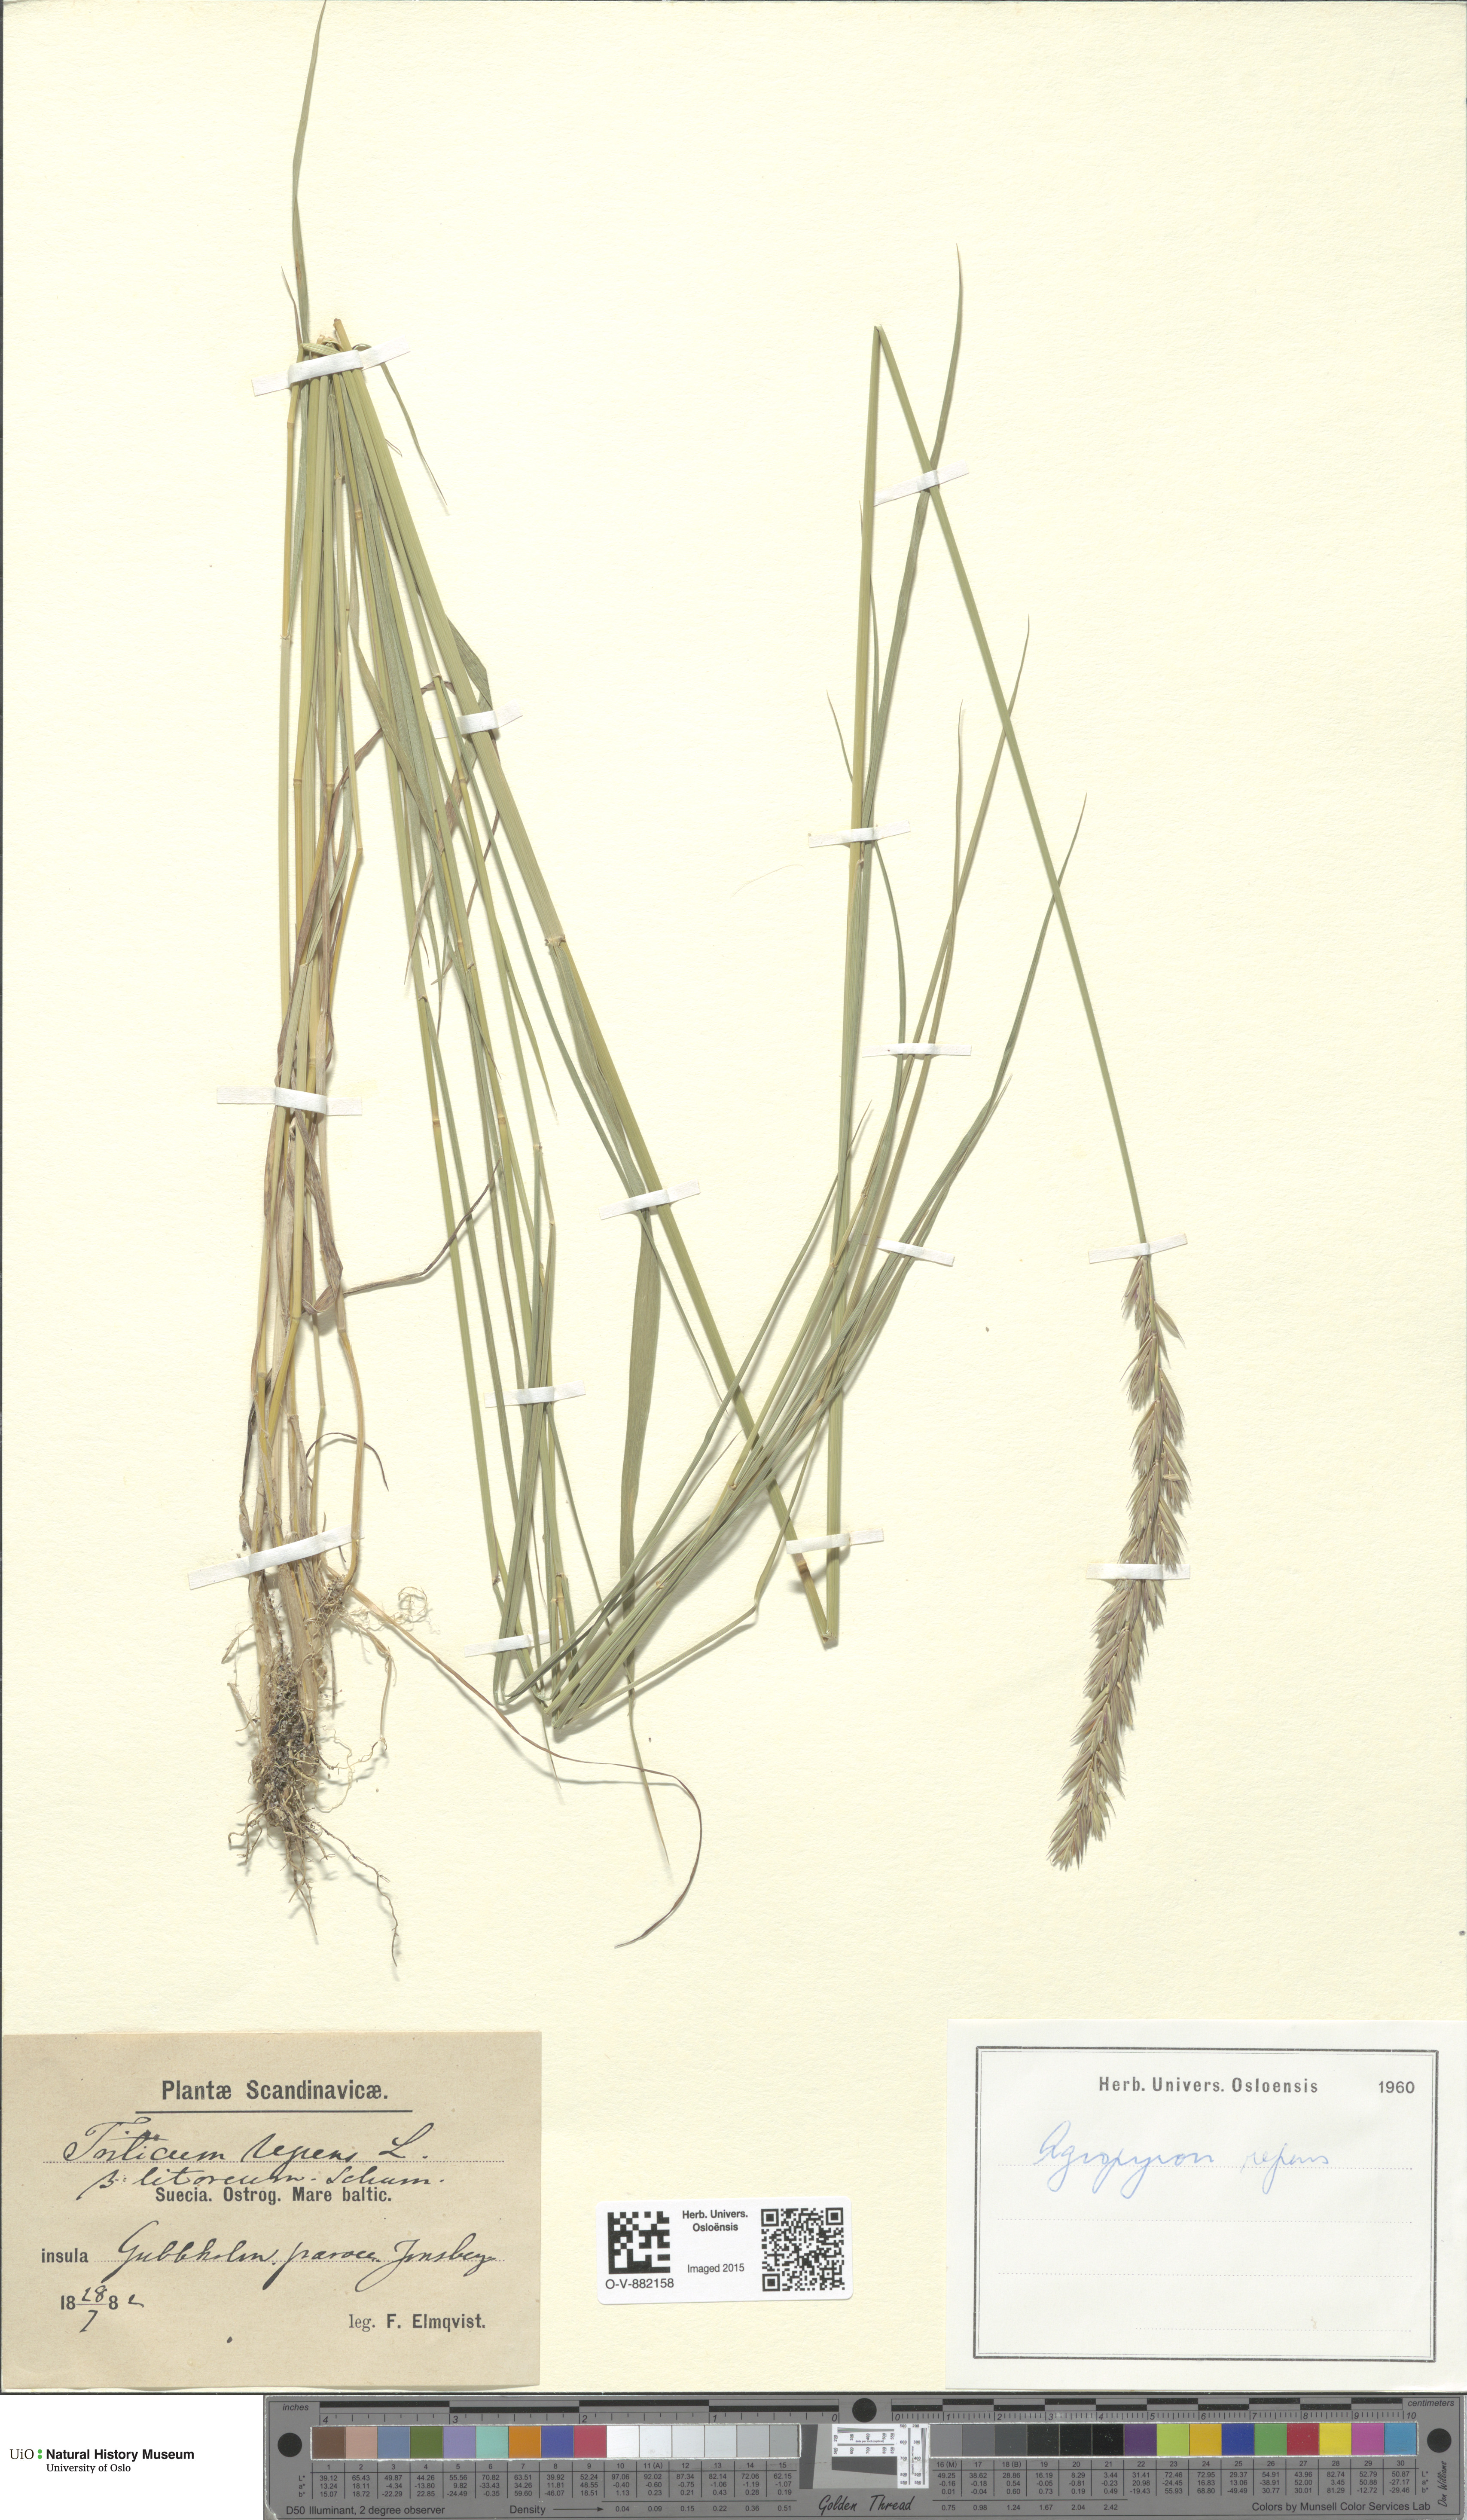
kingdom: Plantae
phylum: Tracheophyta
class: Liliopsida
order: Poales
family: Poaceae
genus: Elymus
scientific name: Elymus repens
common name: Quackgrass
